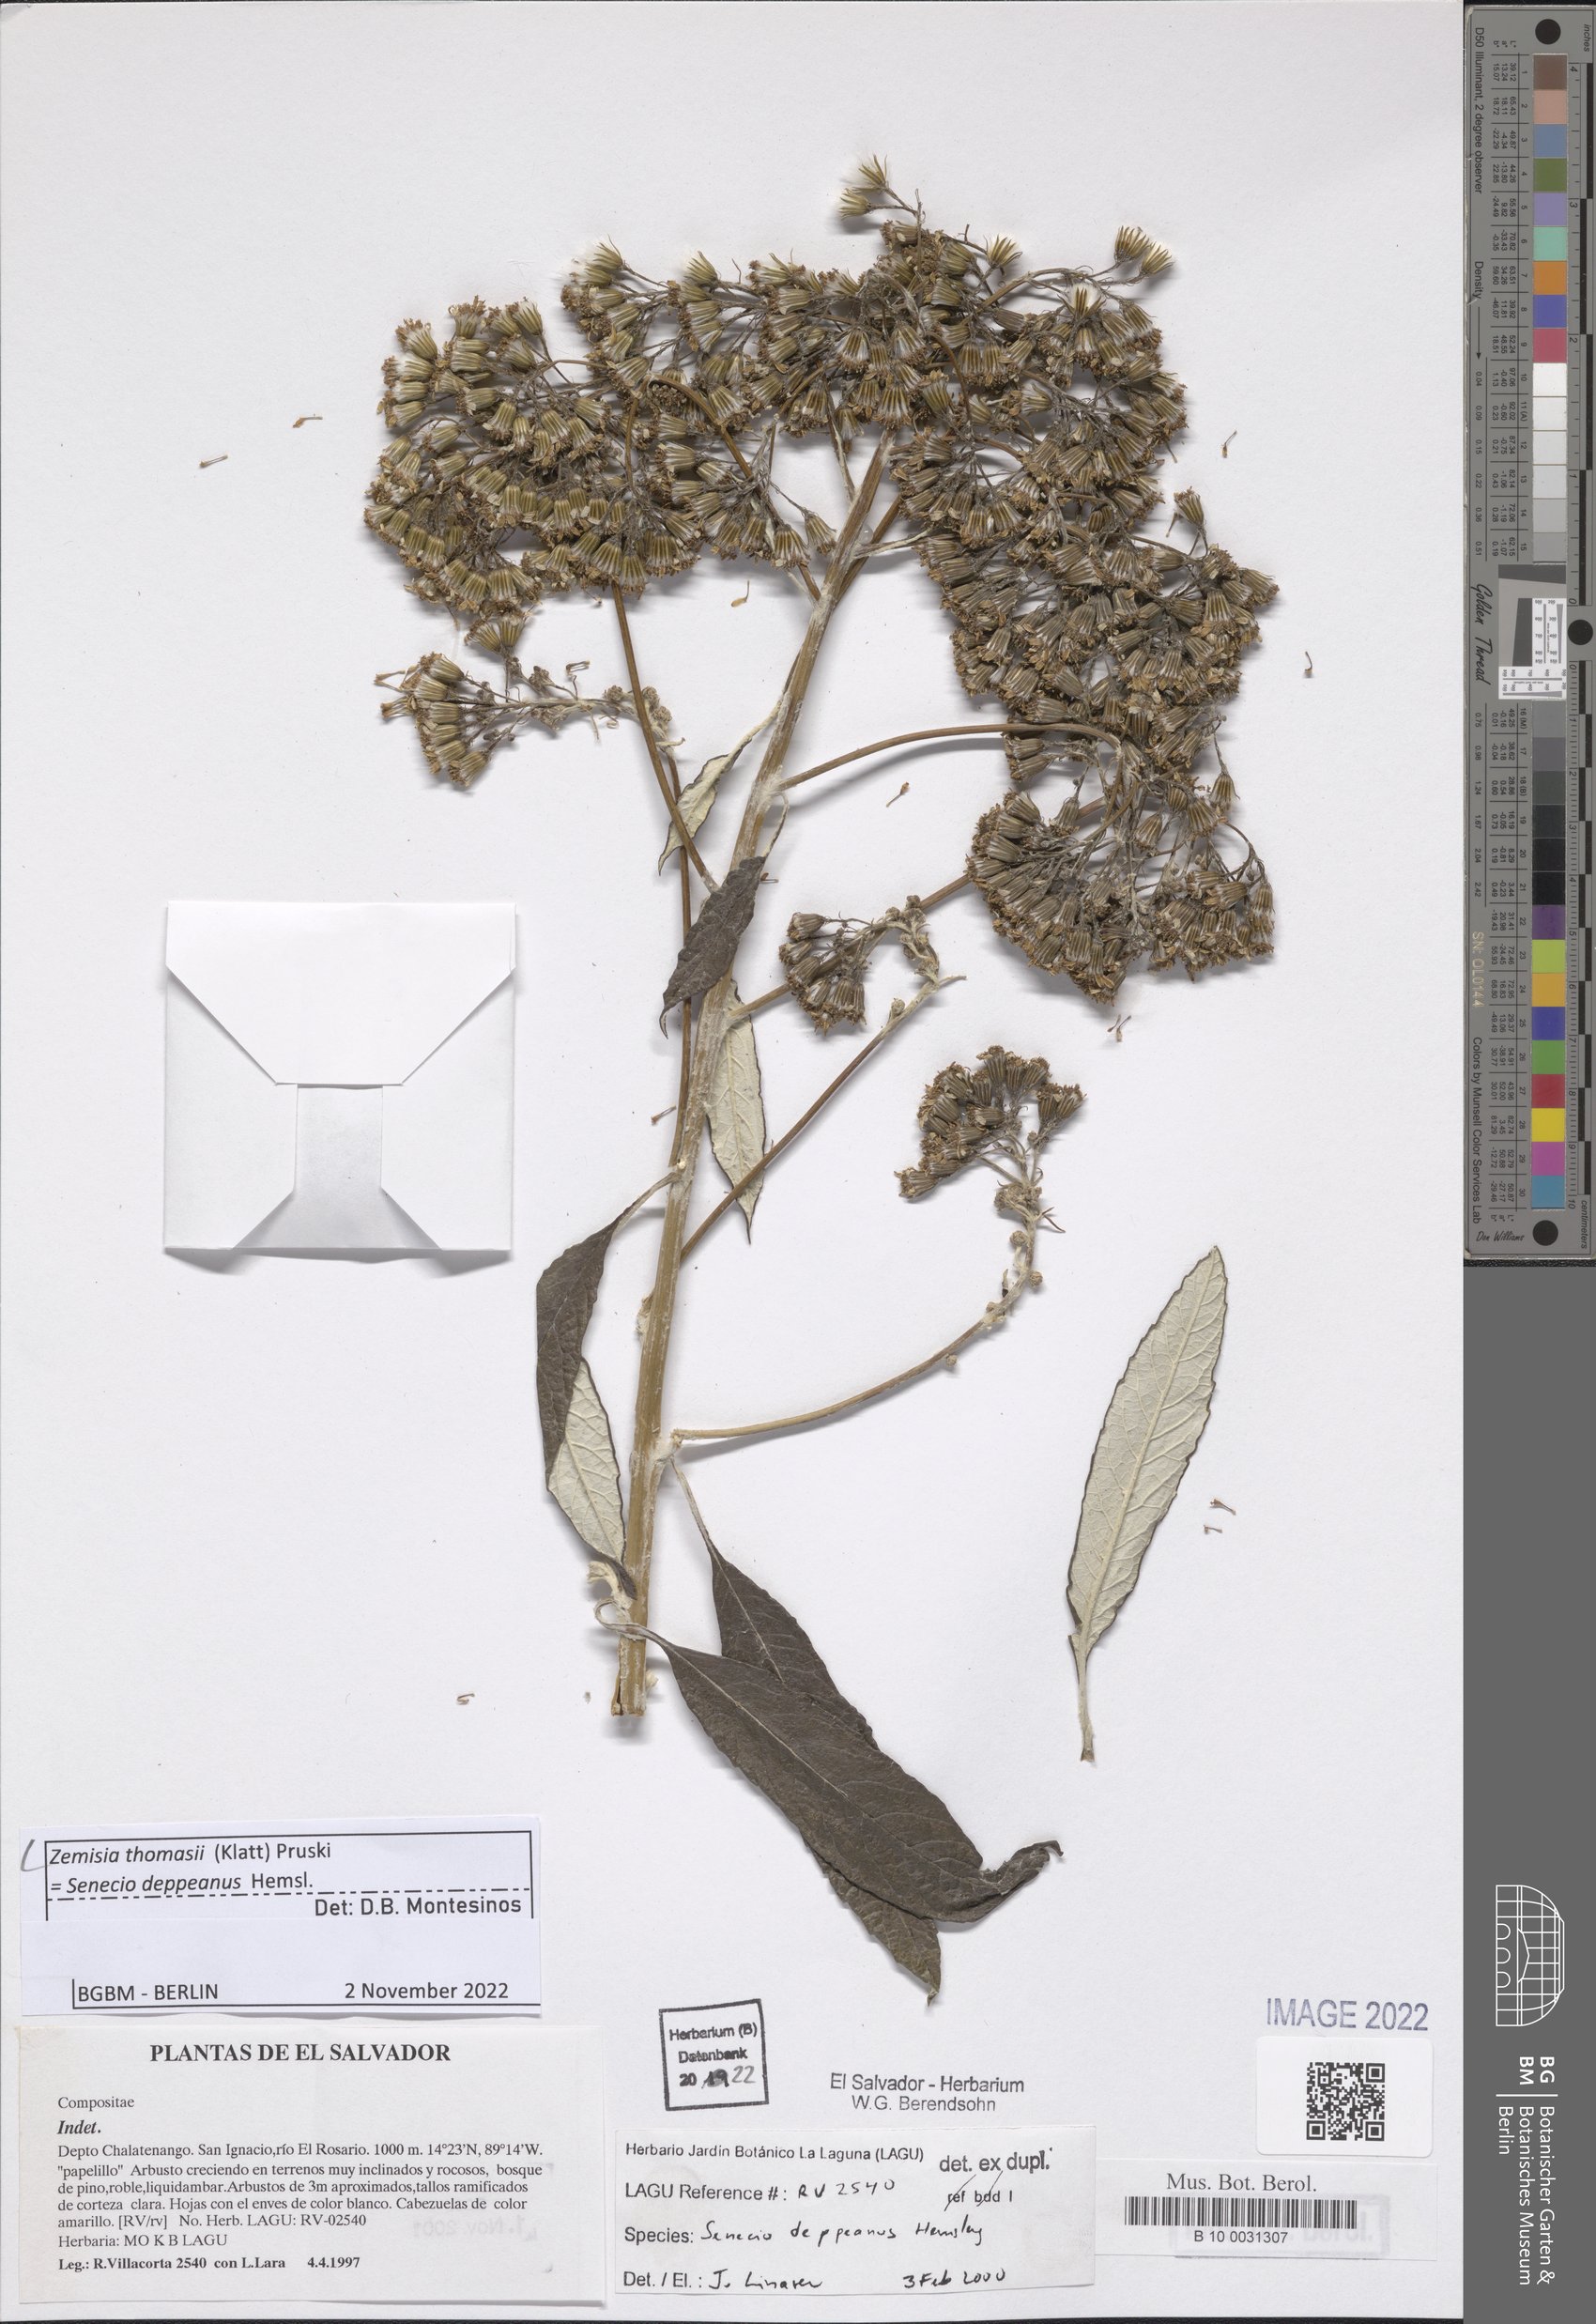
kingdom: Plantae
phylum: Tracheophyta
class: Magnoliopsida
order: Asterales
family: Asteraceae
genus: Zemisia
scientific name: Zemisia thomasii
